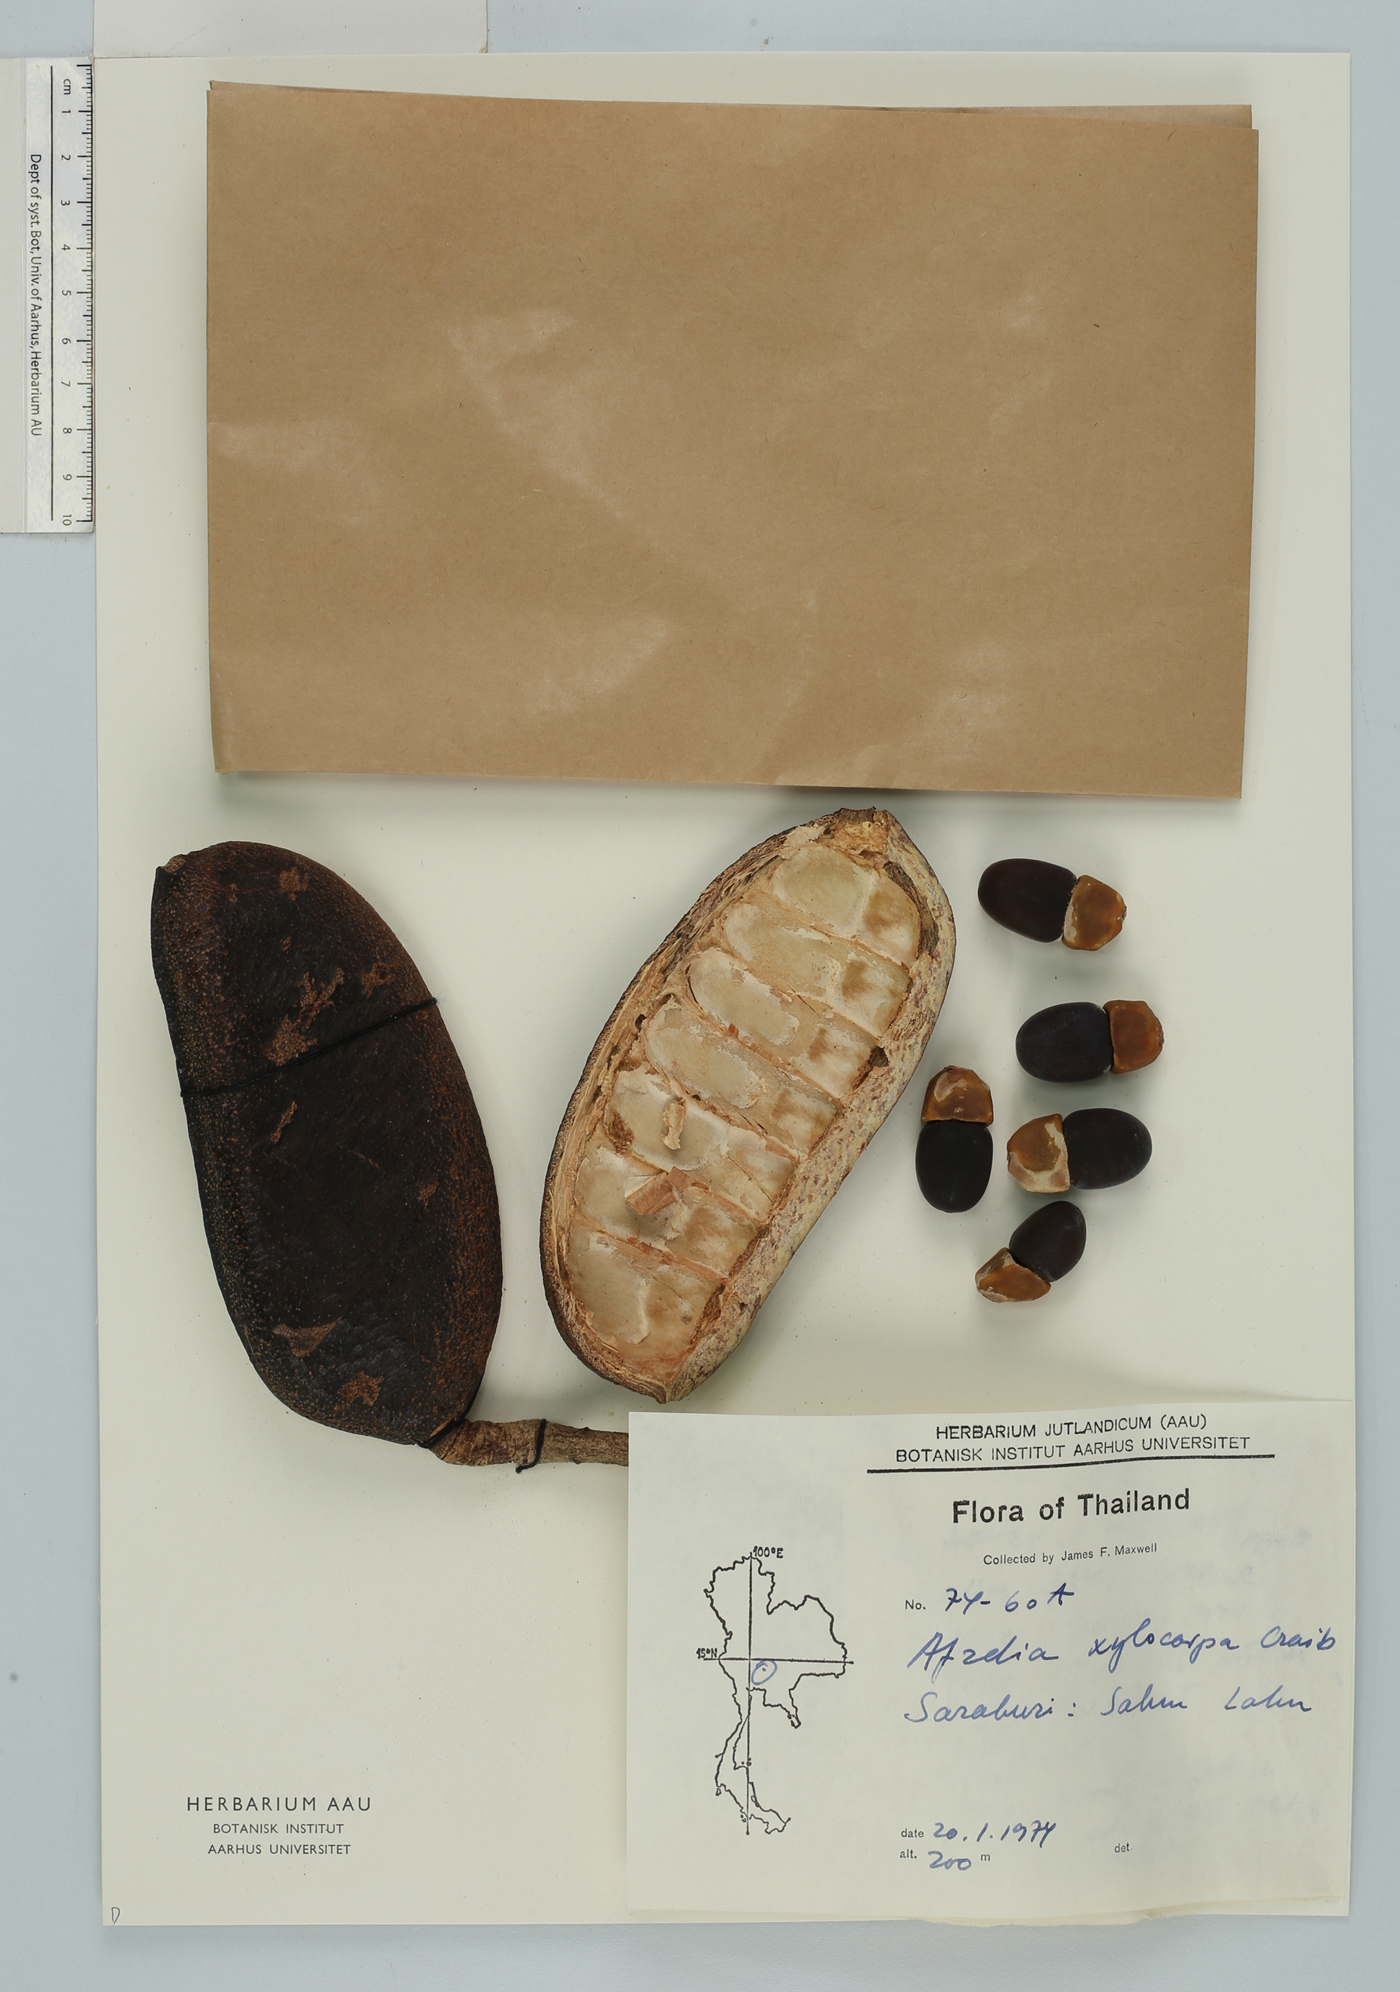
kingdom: Plantae
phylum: Tracheophyta
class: Magnoliopsida
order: Fabales
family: Fabaceae
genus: Afzelia
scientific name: Afzelia xylocarpa
